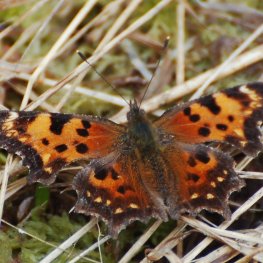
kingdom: Animalia
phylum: Arthropoda
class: Insecta
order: Lepidoptera
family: Nymphalidae
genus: Polygonia
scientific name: Polygonia faunus
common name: Green Comma
